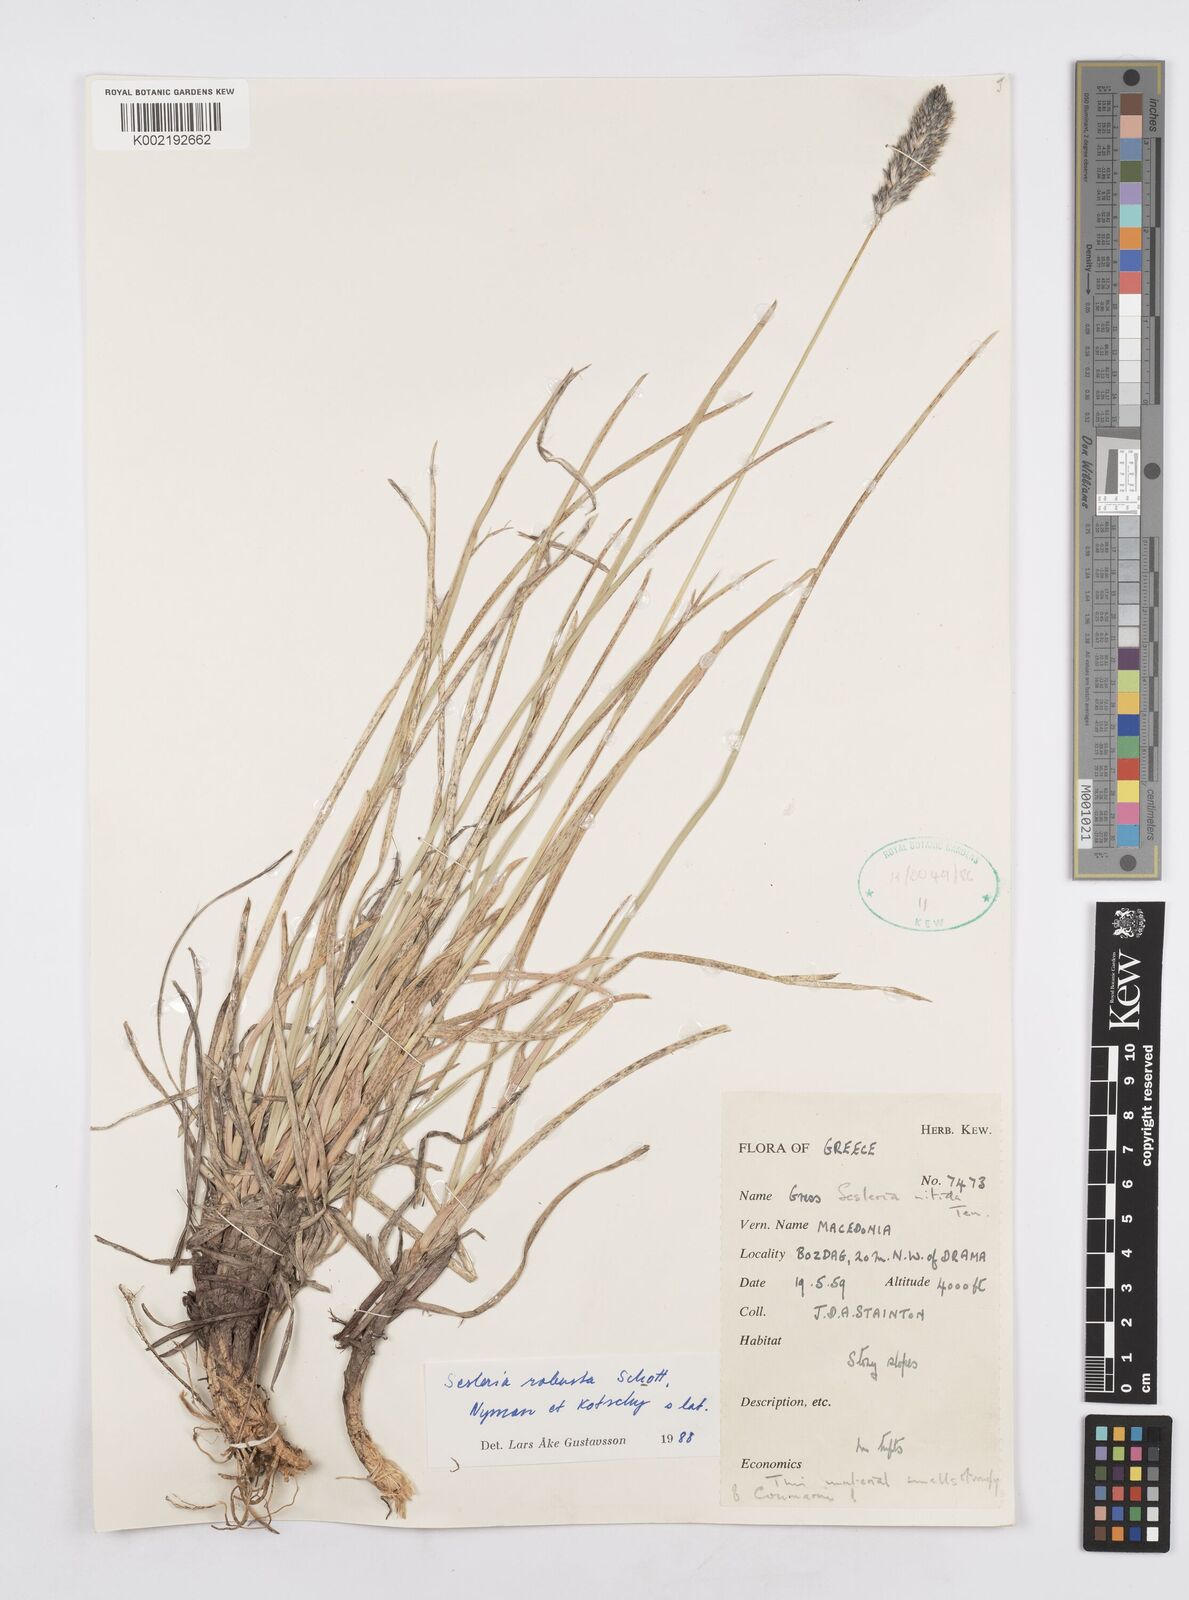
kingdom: Plantae
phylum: Tracheophyta
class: Liliopsida
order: Poales
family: Poaceae
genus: Sesleria
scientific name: Sesleria robusta
